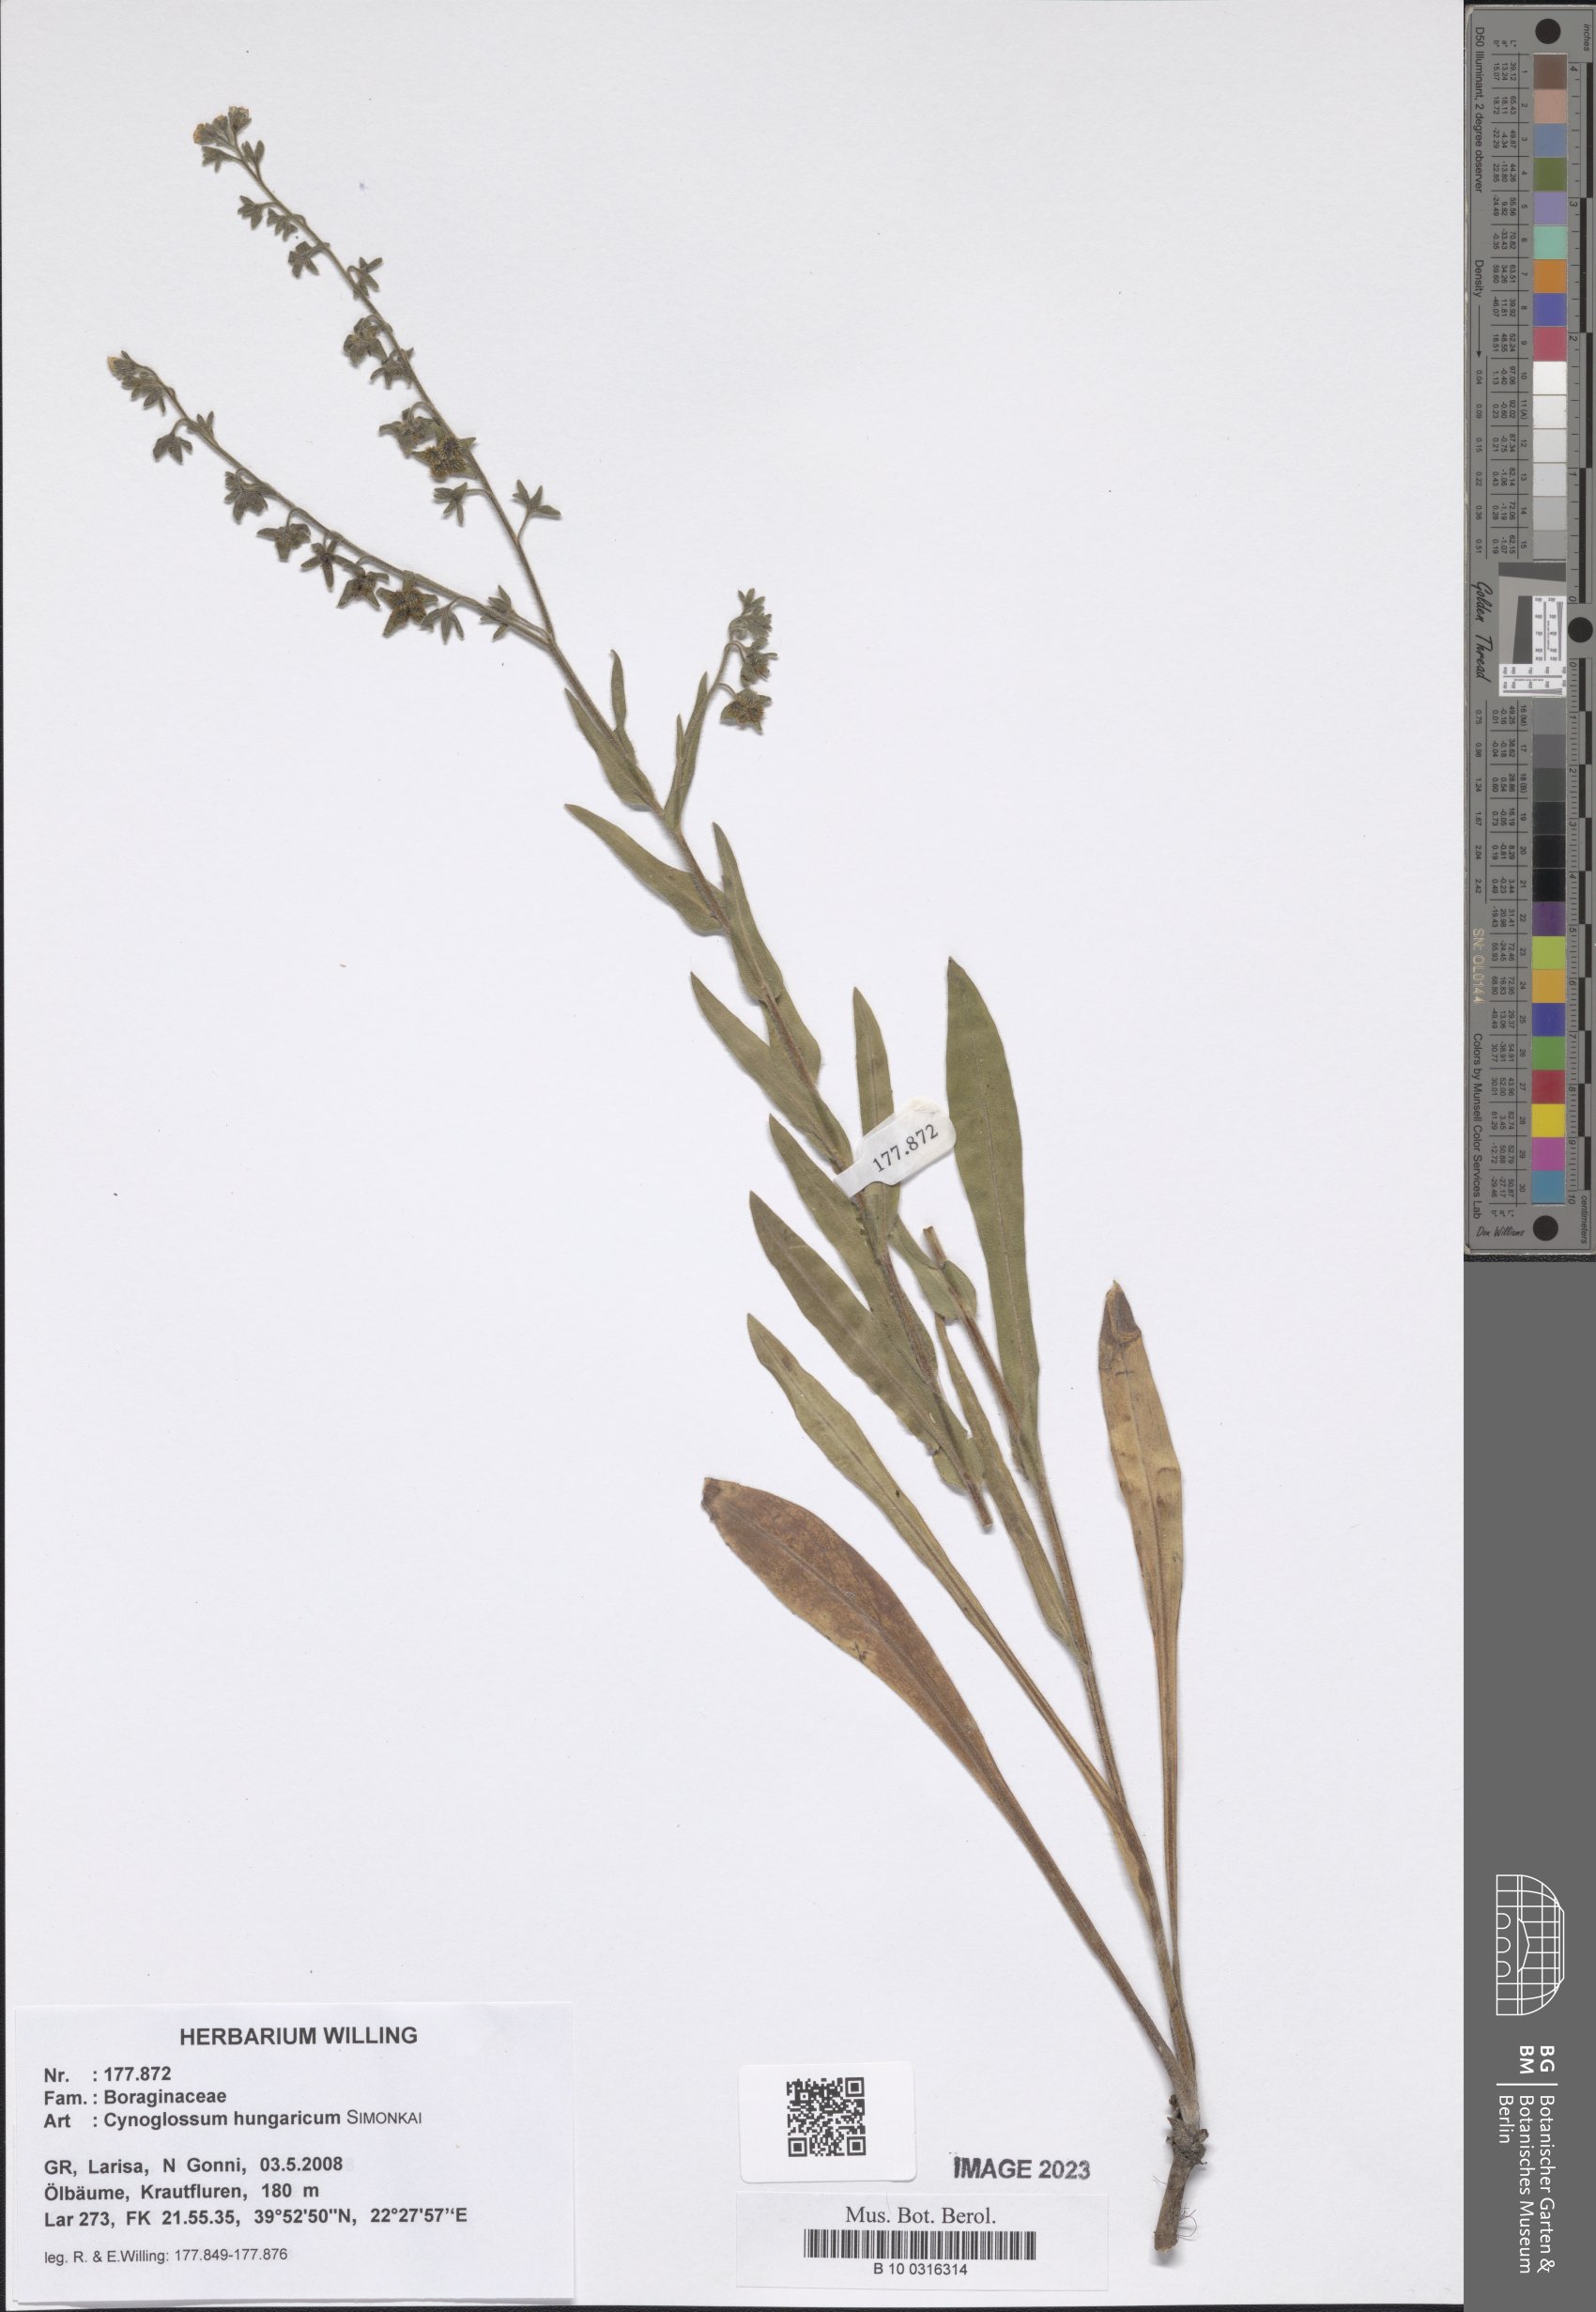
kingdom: Plantae
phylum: Tracheophyta
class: Magnoliopsida
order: Boraginales
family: Boraginaceae
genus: Cynoglossum
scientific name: Cynoglossum montanum
